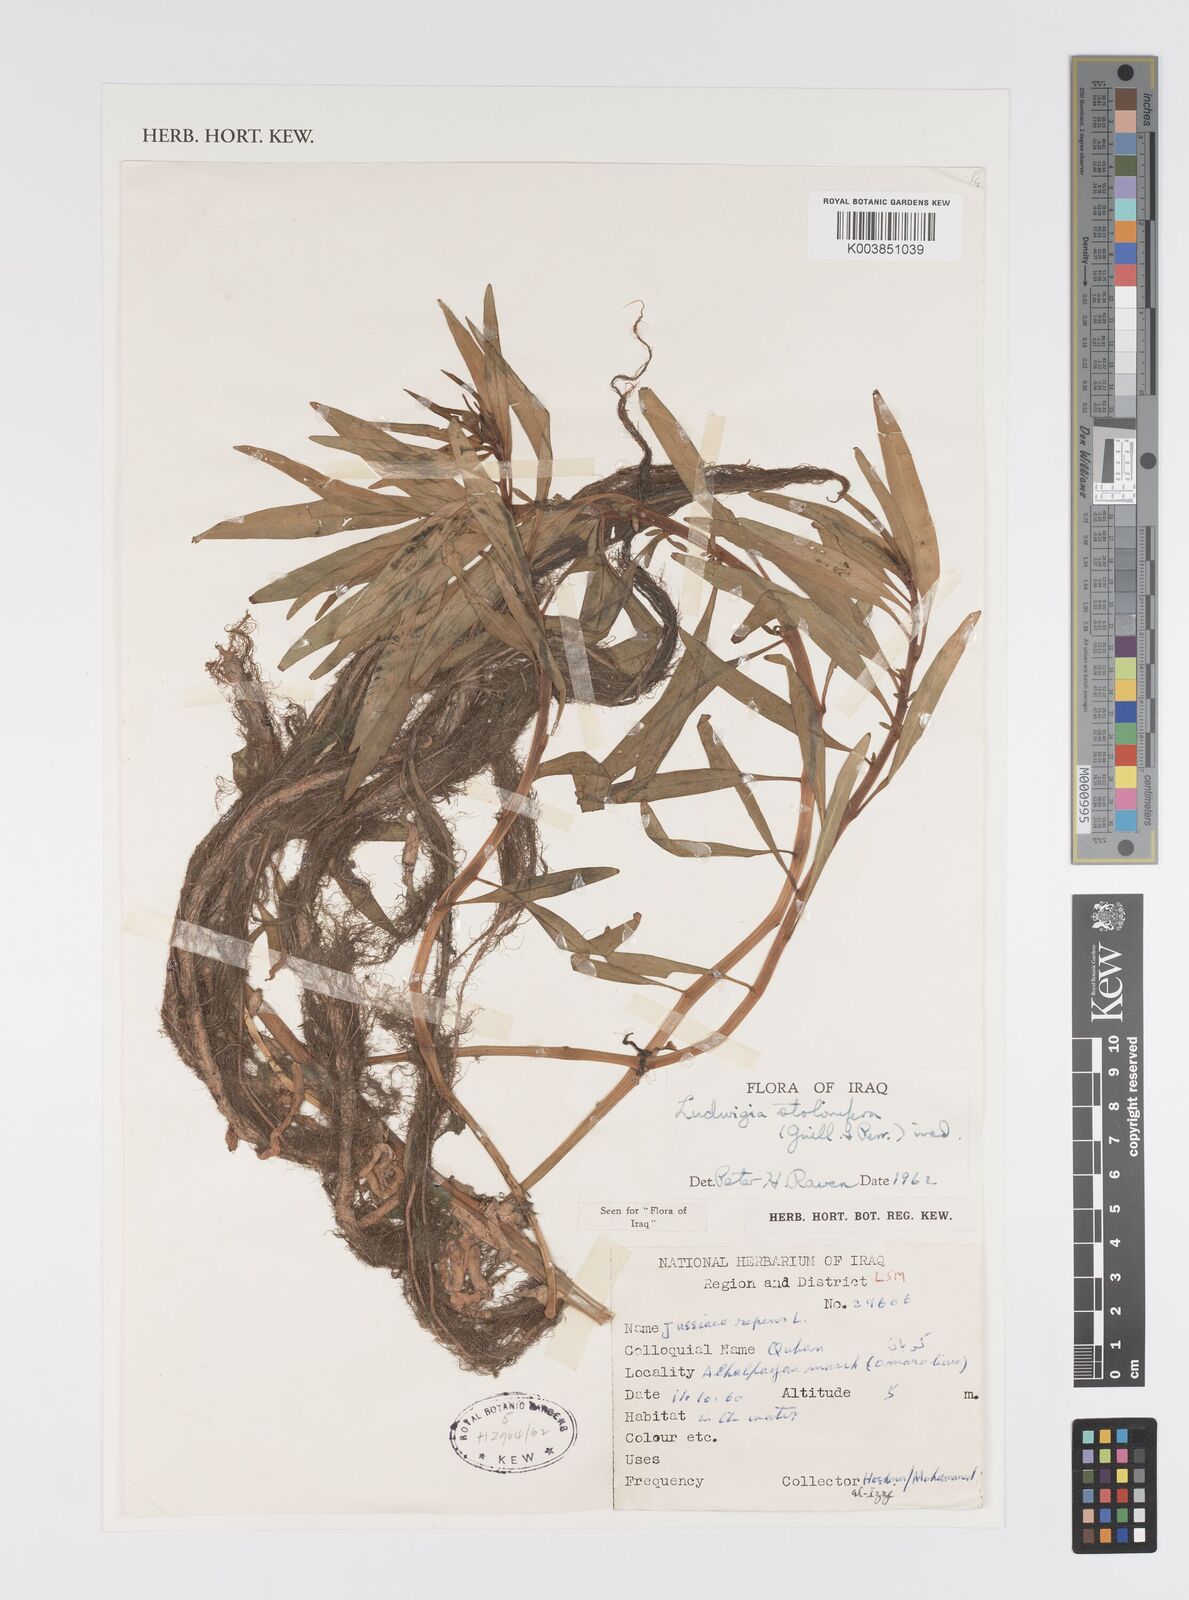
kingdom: Plantae
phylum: Tracheophyta
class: Magnoliopsida
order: Myrtales
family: Onagraceae
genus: Ludwigia
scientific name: Ludwigia adscendens
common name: Creeping water primrose
